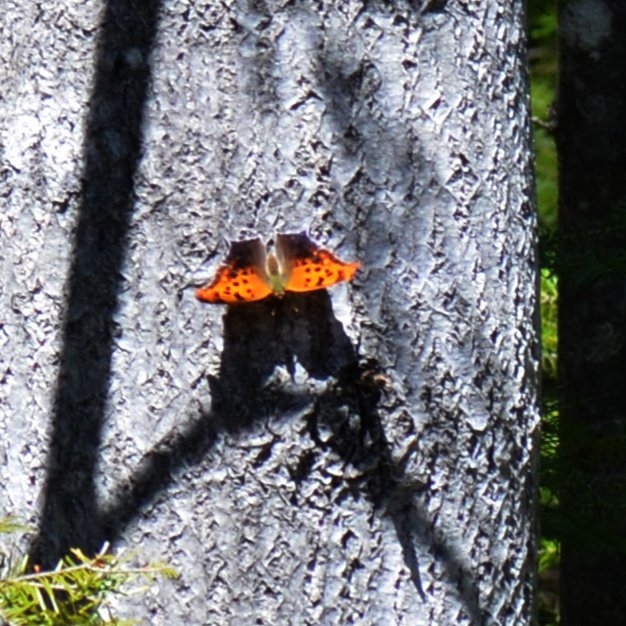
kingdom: Animalia
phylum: Arthropoda
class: Insecta
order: Lepidoptera
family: Nymphalidae
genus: Polygonia
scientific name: Polygonia interrogationis
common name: Question Mark
